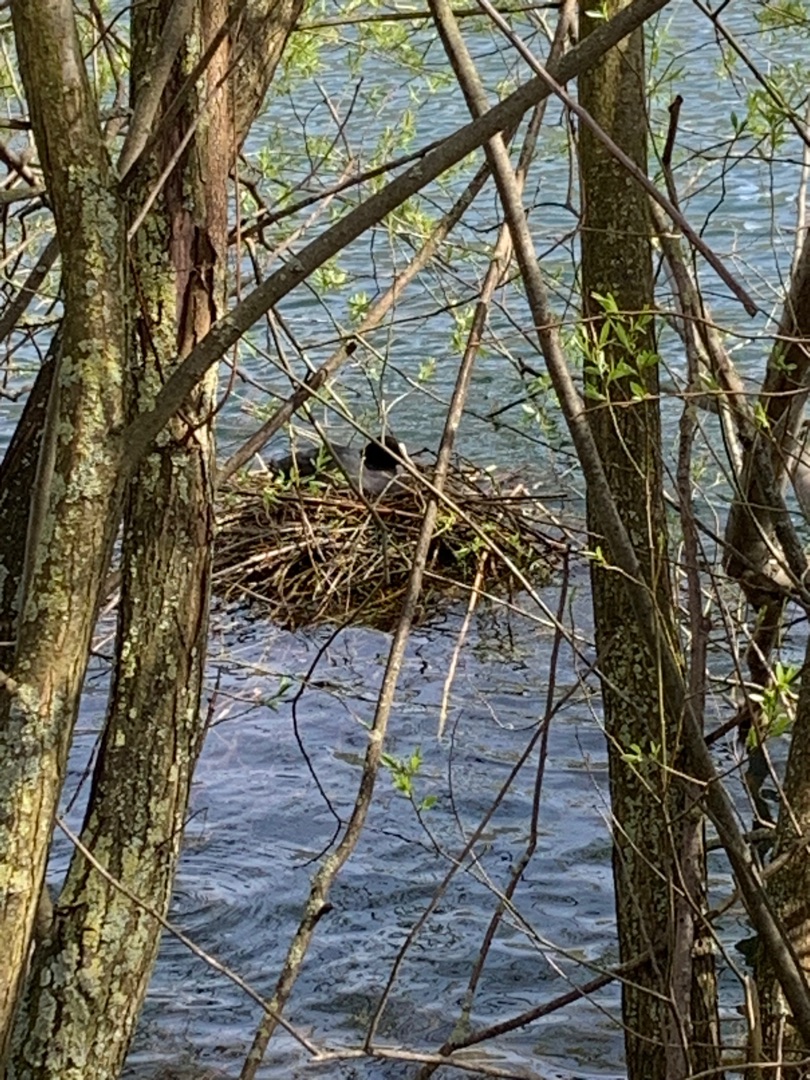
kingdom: Animalia
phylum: Chordata
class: Aves
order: Gruiformes
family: Rallidae
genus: Fulica
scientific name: Fulica atra
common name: Blishøne
